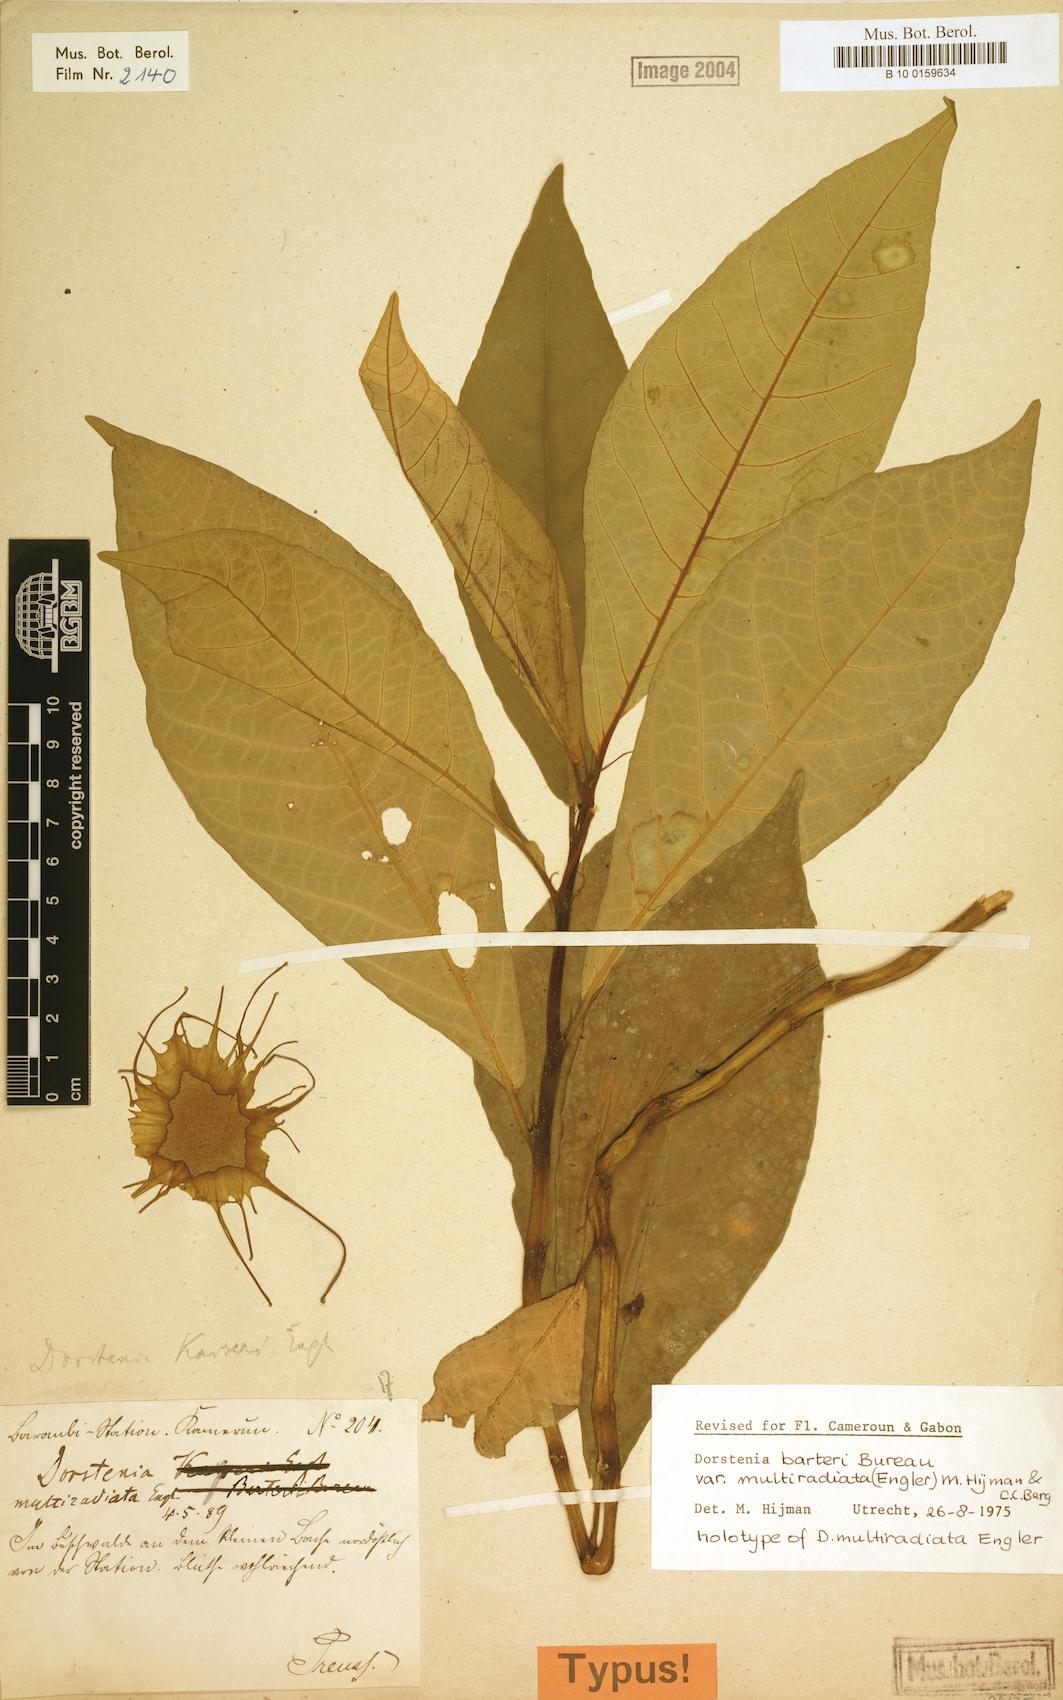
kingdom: Plantae
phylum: Tracheophyta
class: Magnoliopsida
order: Rosales
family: Moraceae
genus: Dorstenia
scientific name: Dorstenia barteri
